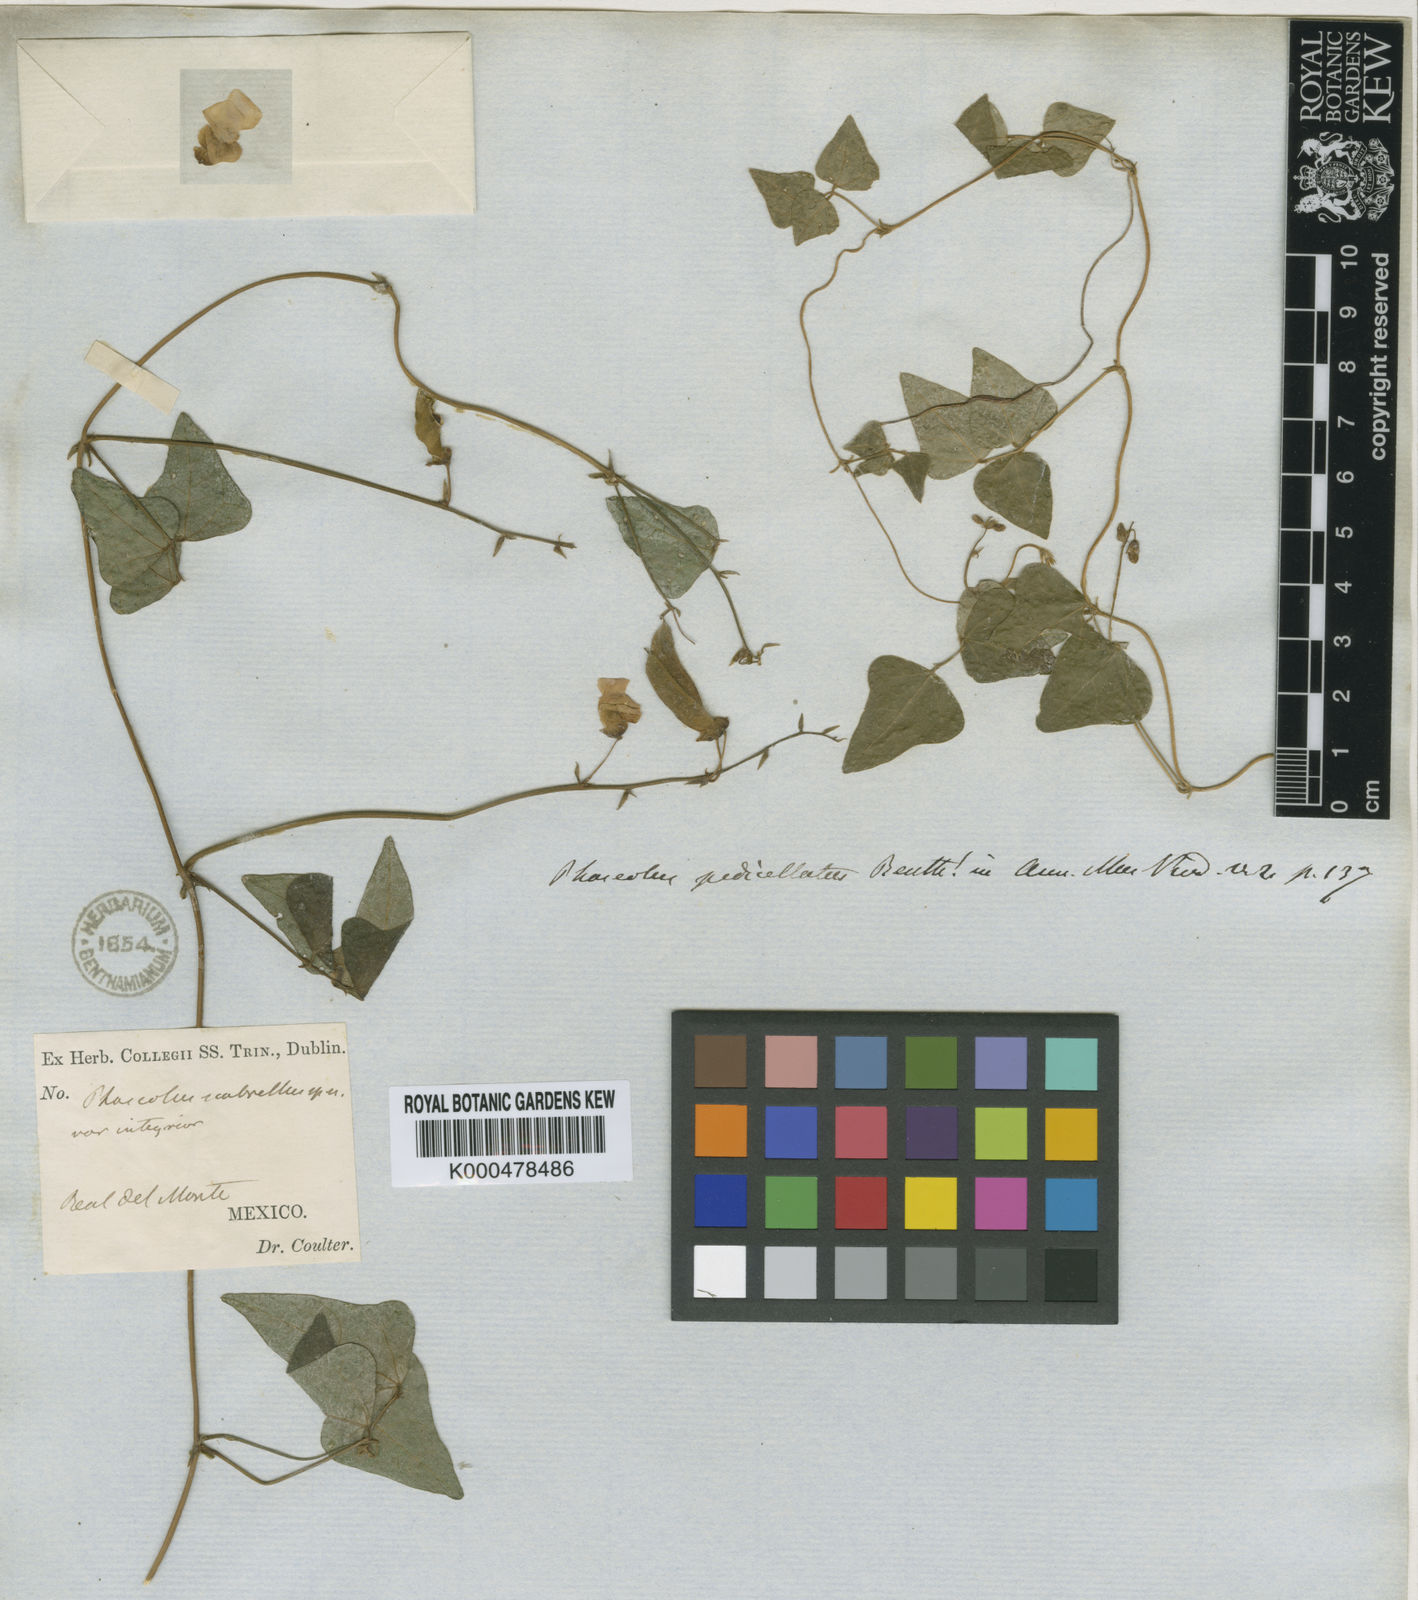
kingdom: Plantae
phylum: Tracheophyta
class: Magnoliopsida
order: Fabales
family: Fabaceae
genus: Phaseolus
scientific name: Phaseolus scabrellus
